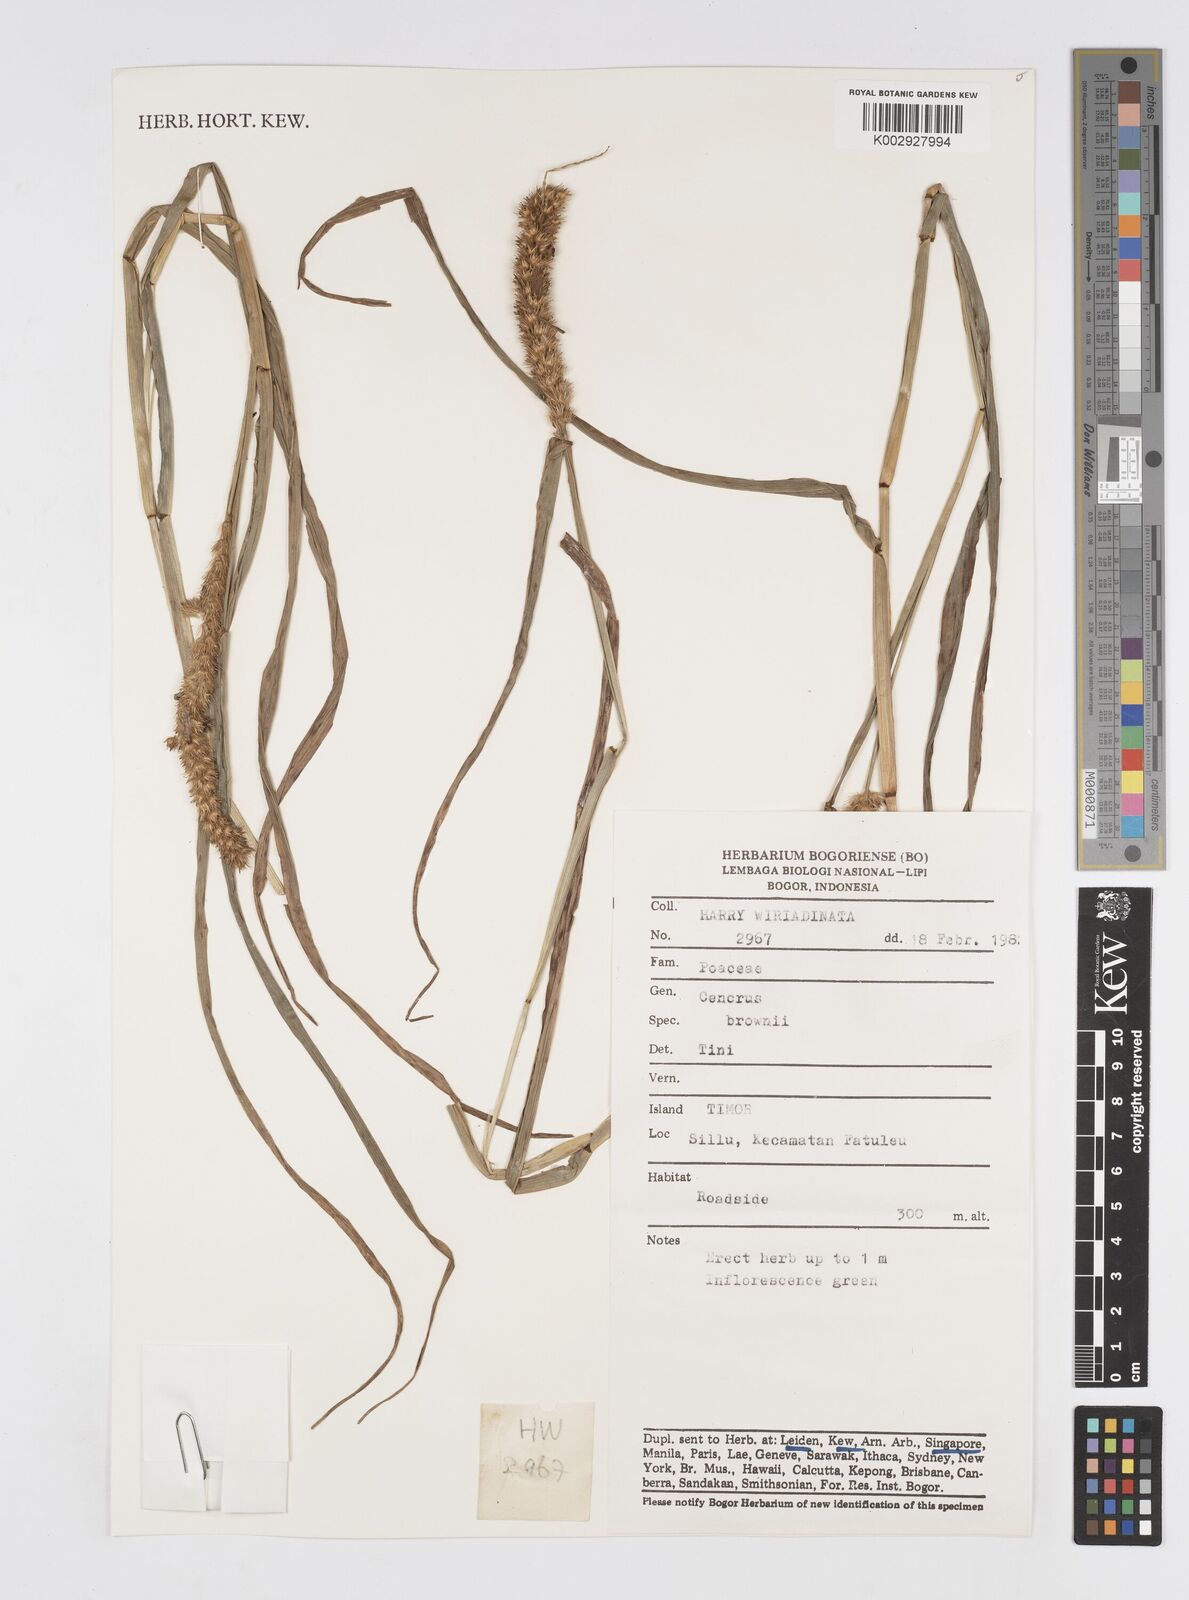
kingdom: Plantae
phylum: Tracheophyta
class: Liliopsida
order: Poales
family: Poaceae
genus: Cenchrus
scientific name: Cenchrus brownii
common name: Slim-bristle sandbur
